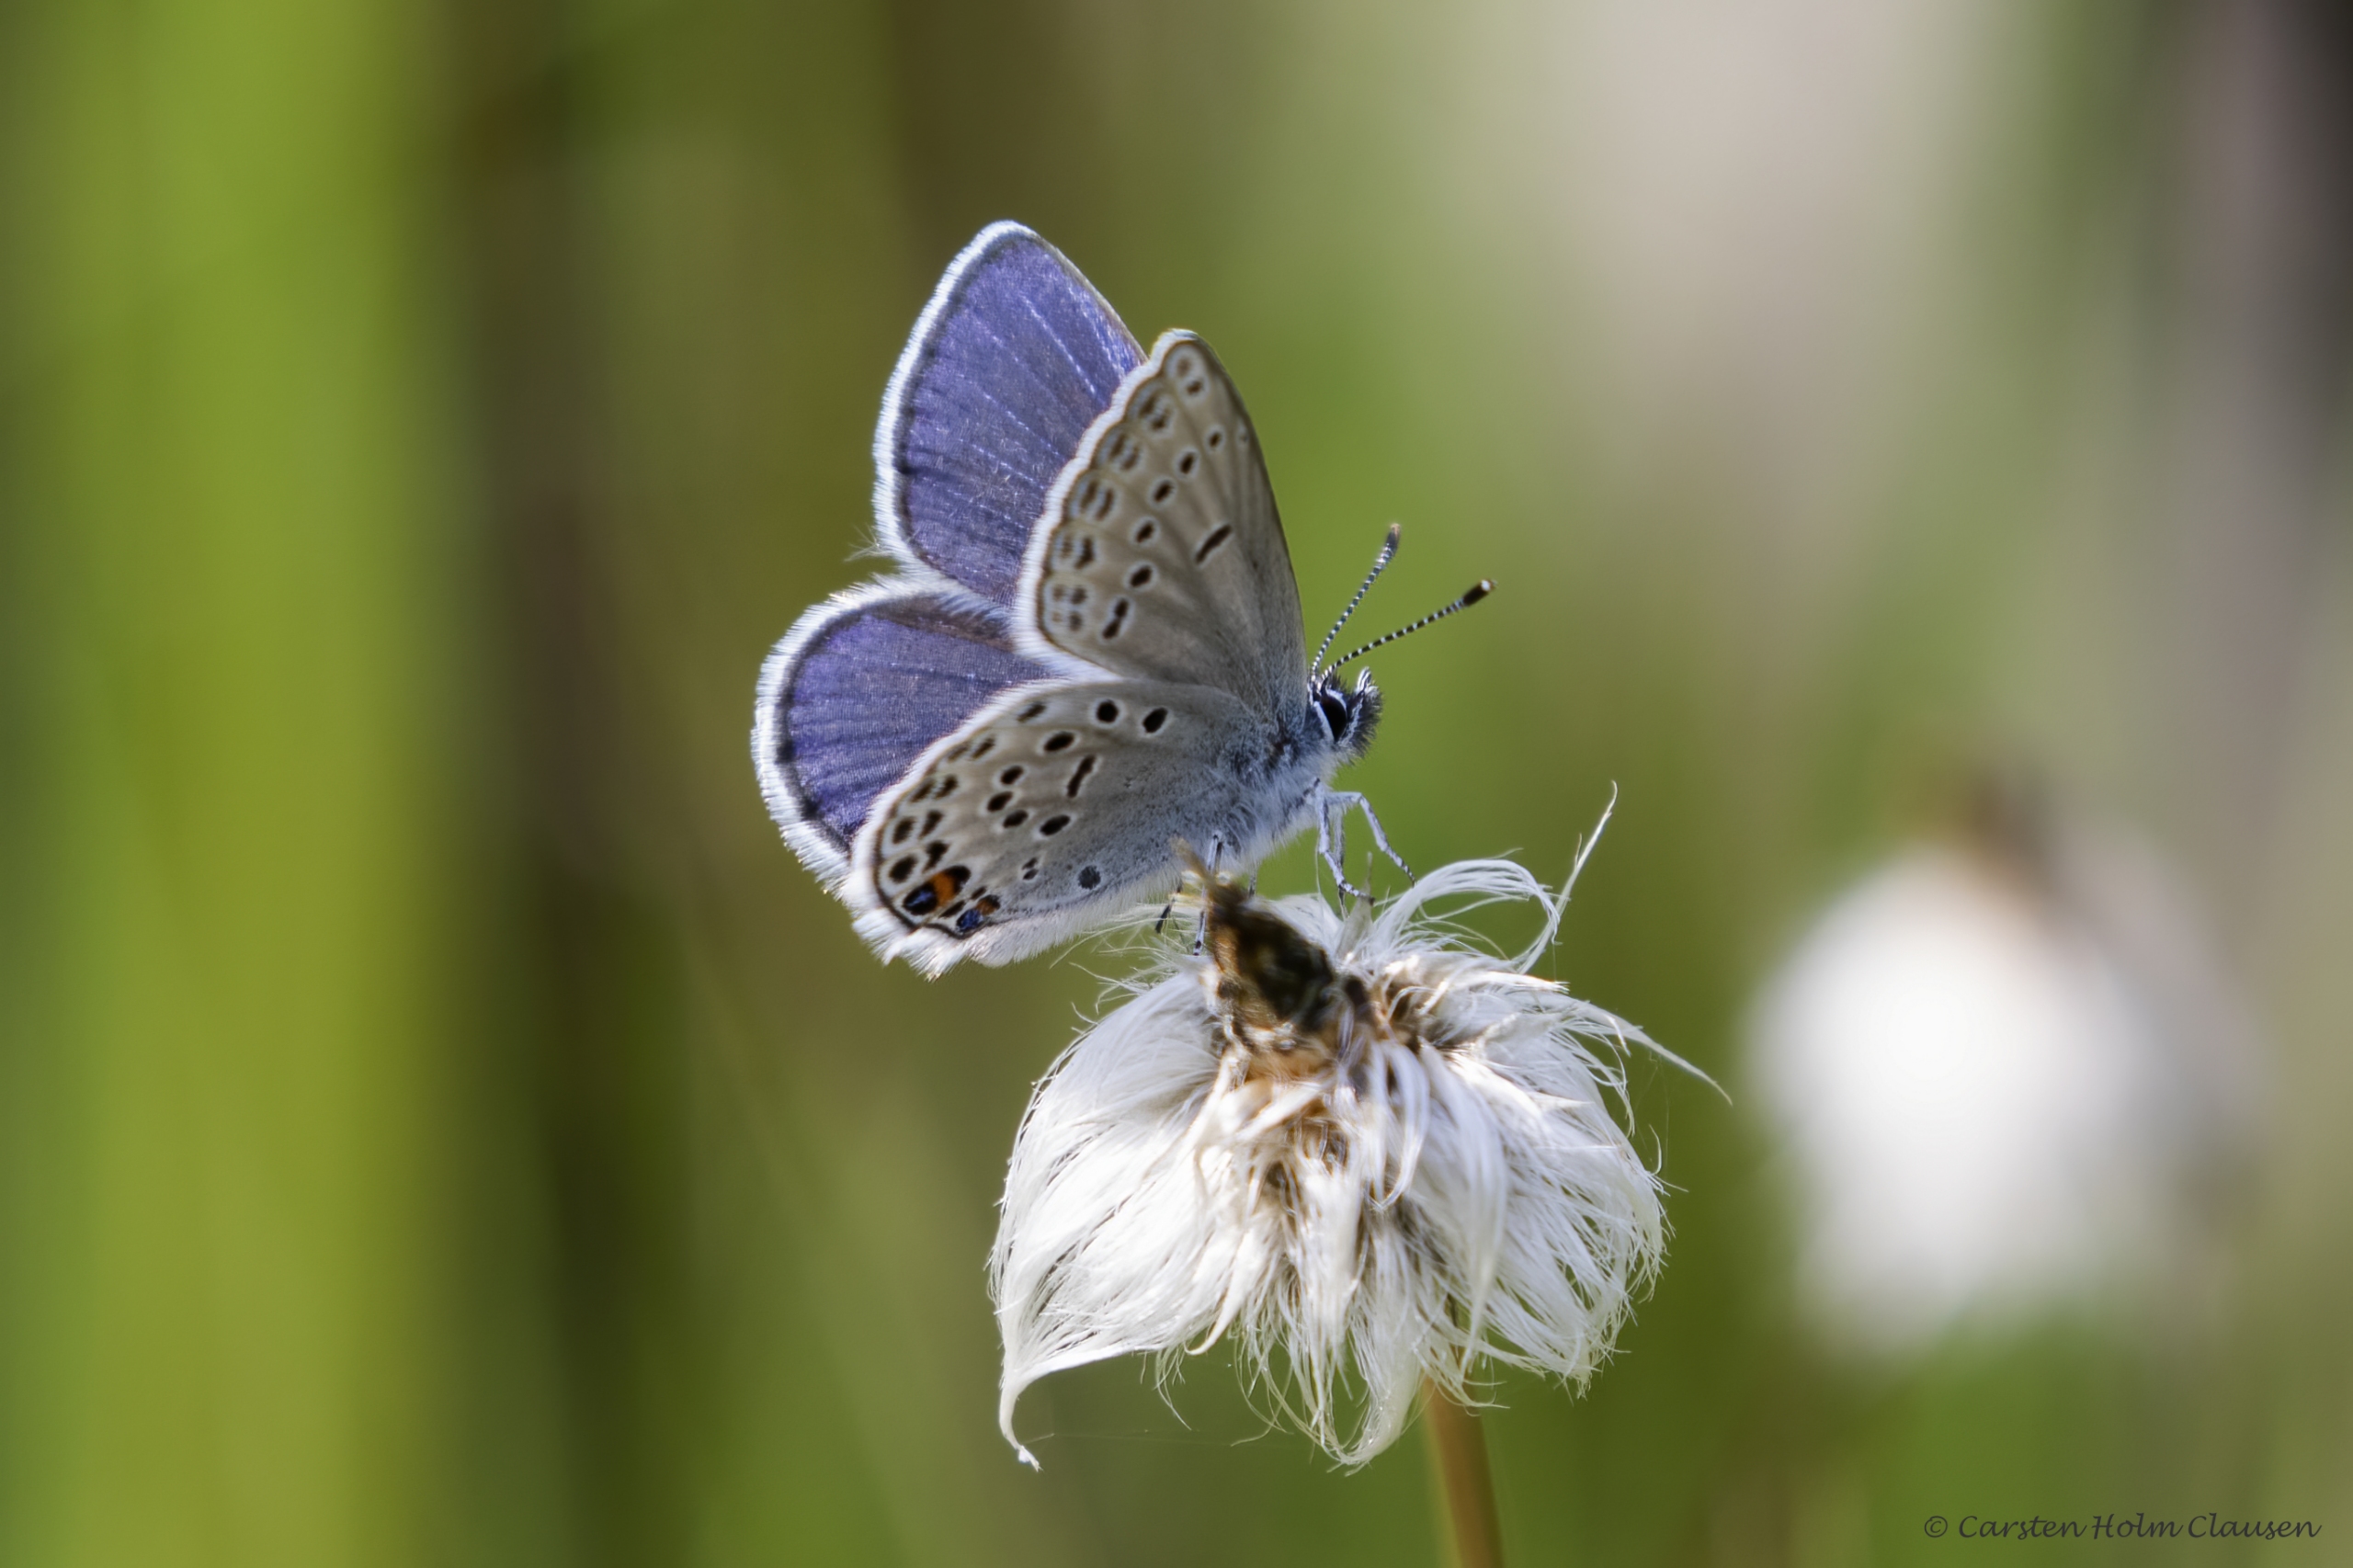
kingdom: Animalia
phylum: Arthropoda
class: Insecta
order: Lepidoptera
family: Lycaenidae
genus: Vacciniina
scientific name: Vacciniina optilete
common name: Bølleblåfugl
